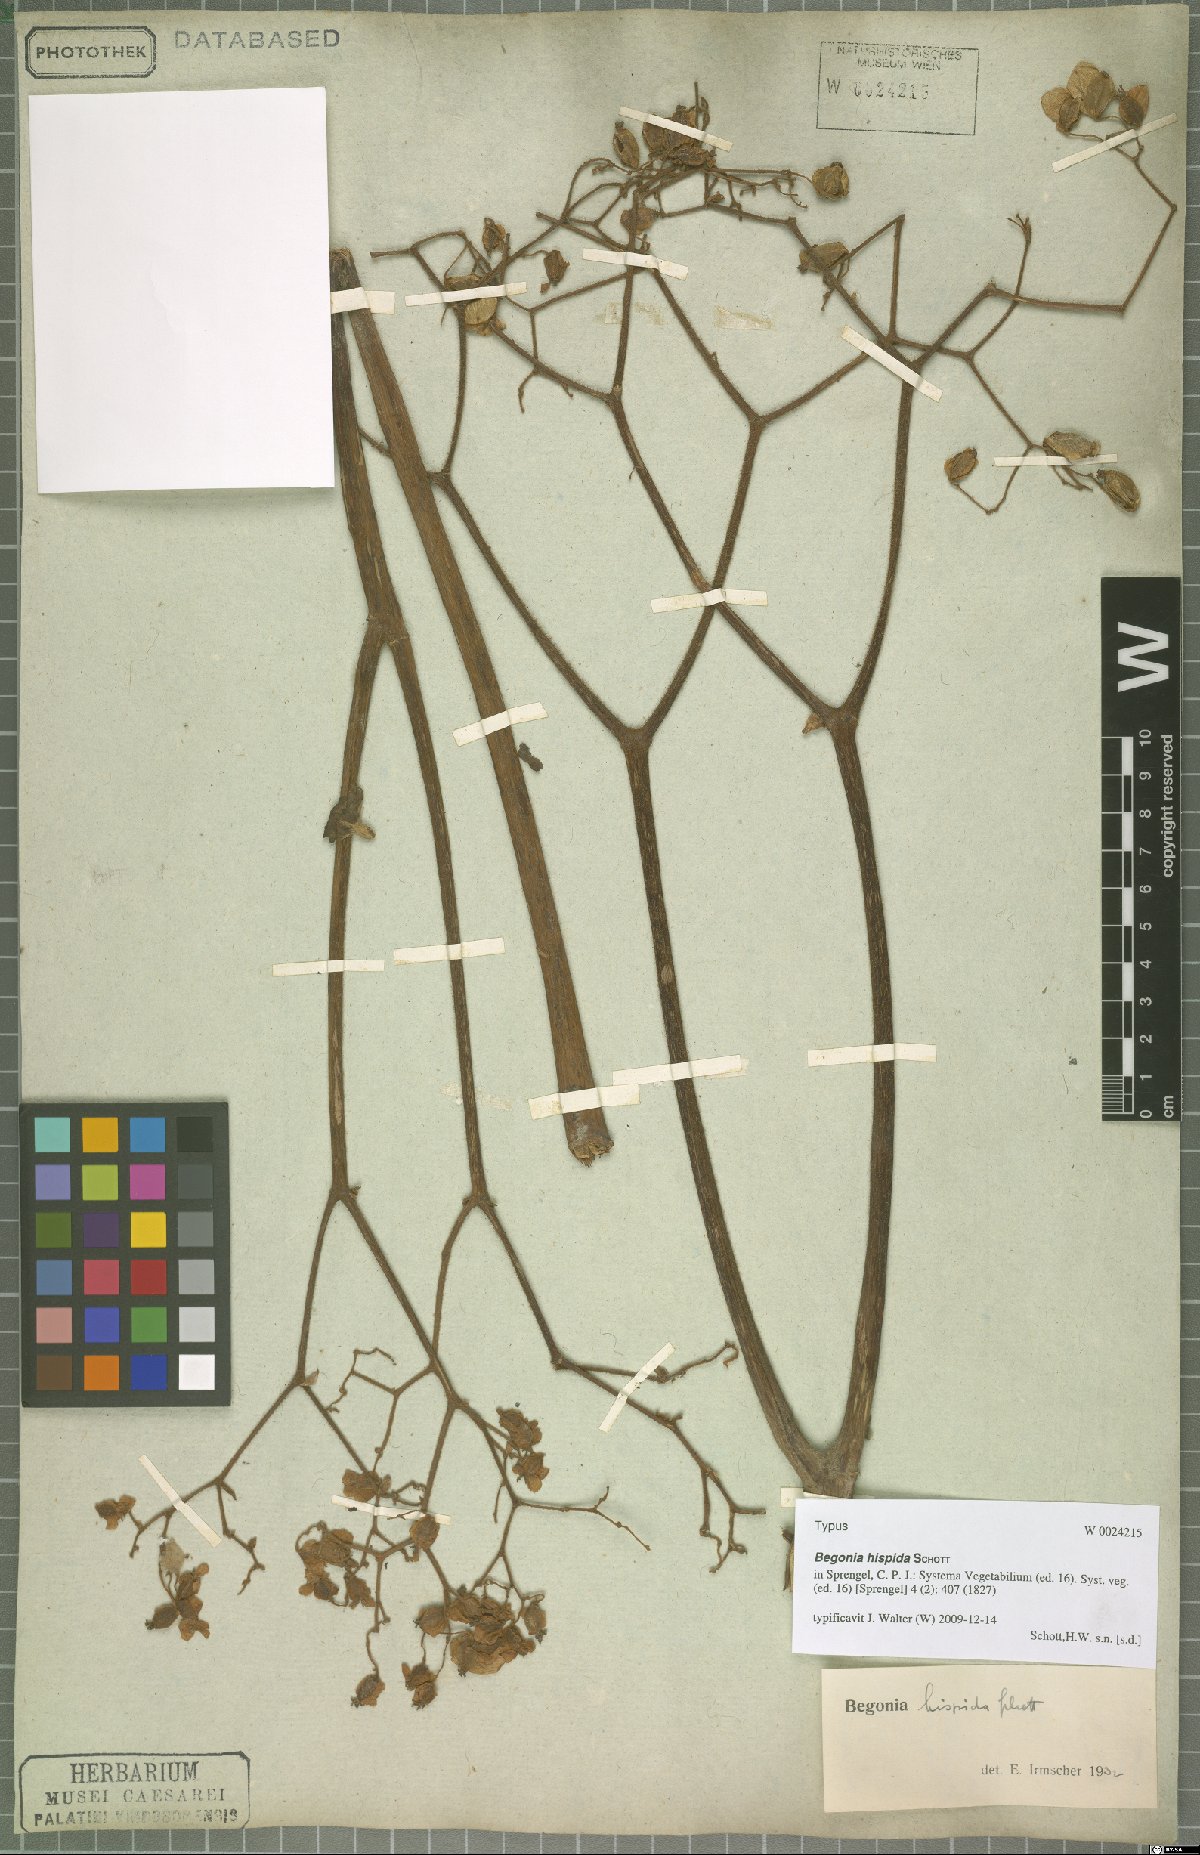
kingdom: Plantae
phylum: Tracheophyta
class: Magnoliopsida
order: Cucurbitales
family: Begoniaceae
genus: Begonia
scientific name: Begonia hispida
